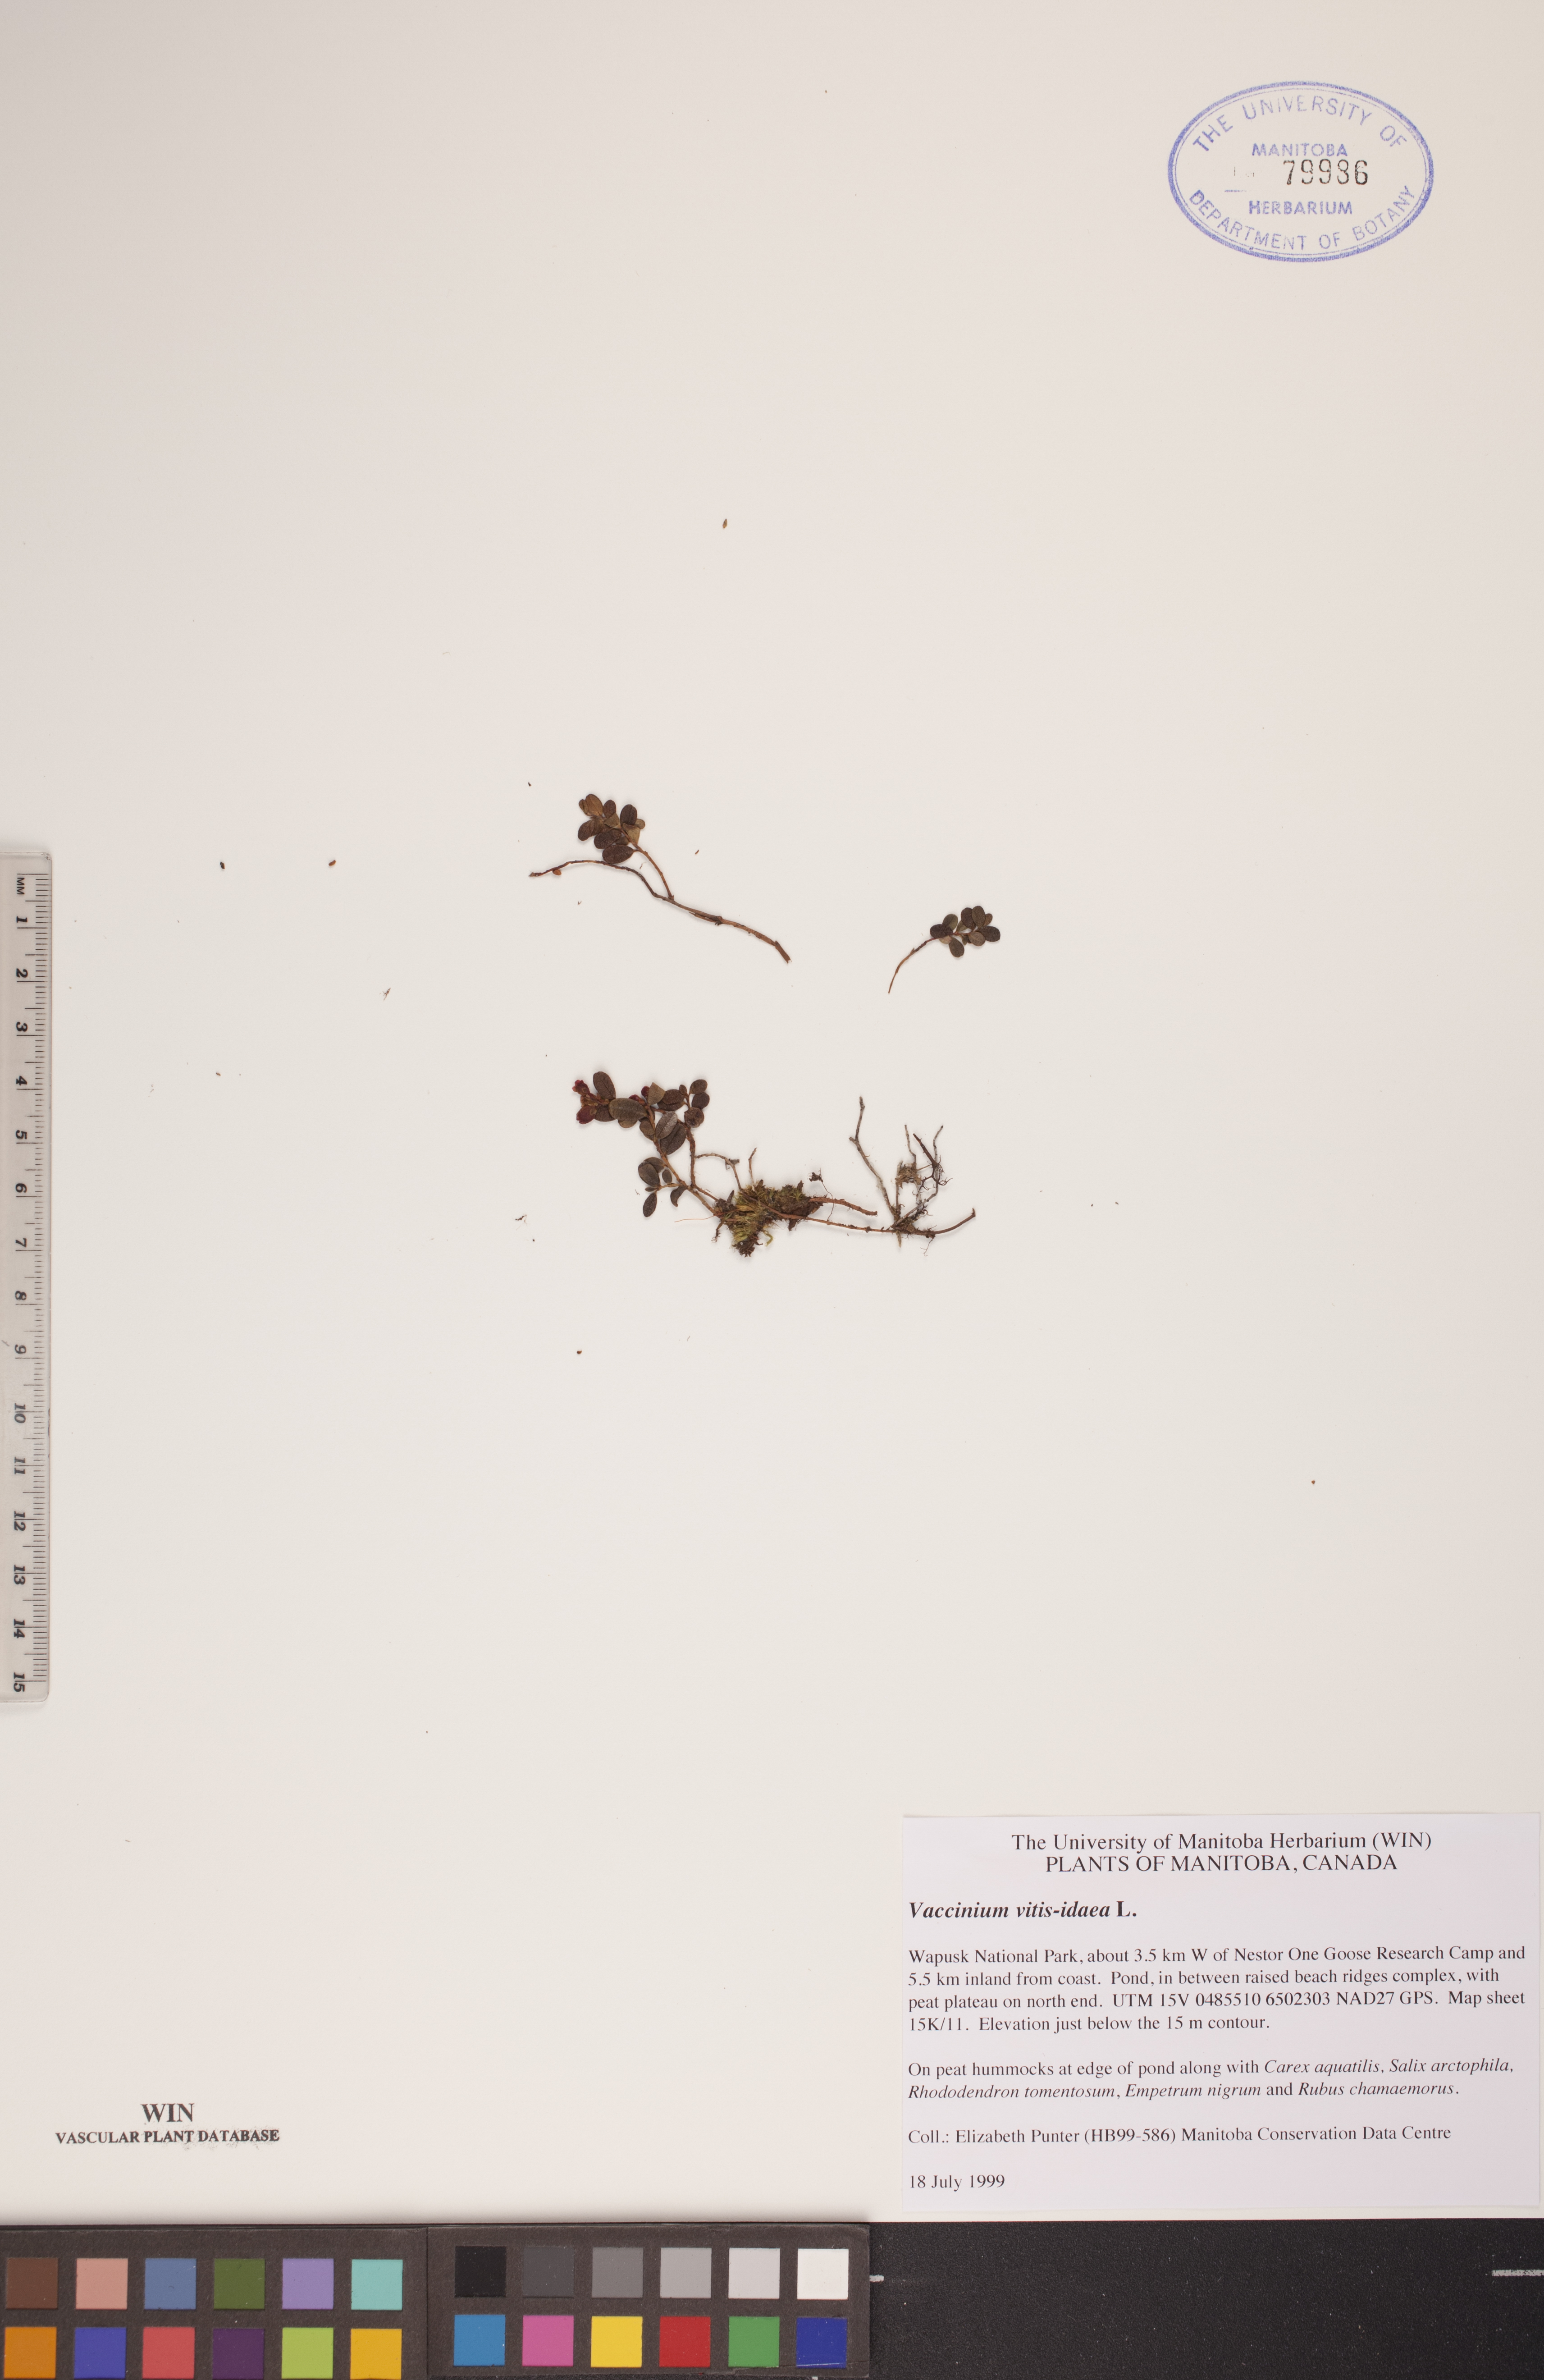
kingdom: Plantae
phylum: Tracheophyta
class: Magnoliopsida
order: Ericales
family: Ericaceae
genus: Vaccinium
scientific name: Vaccinium vitis-idaea
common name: Cowberry
